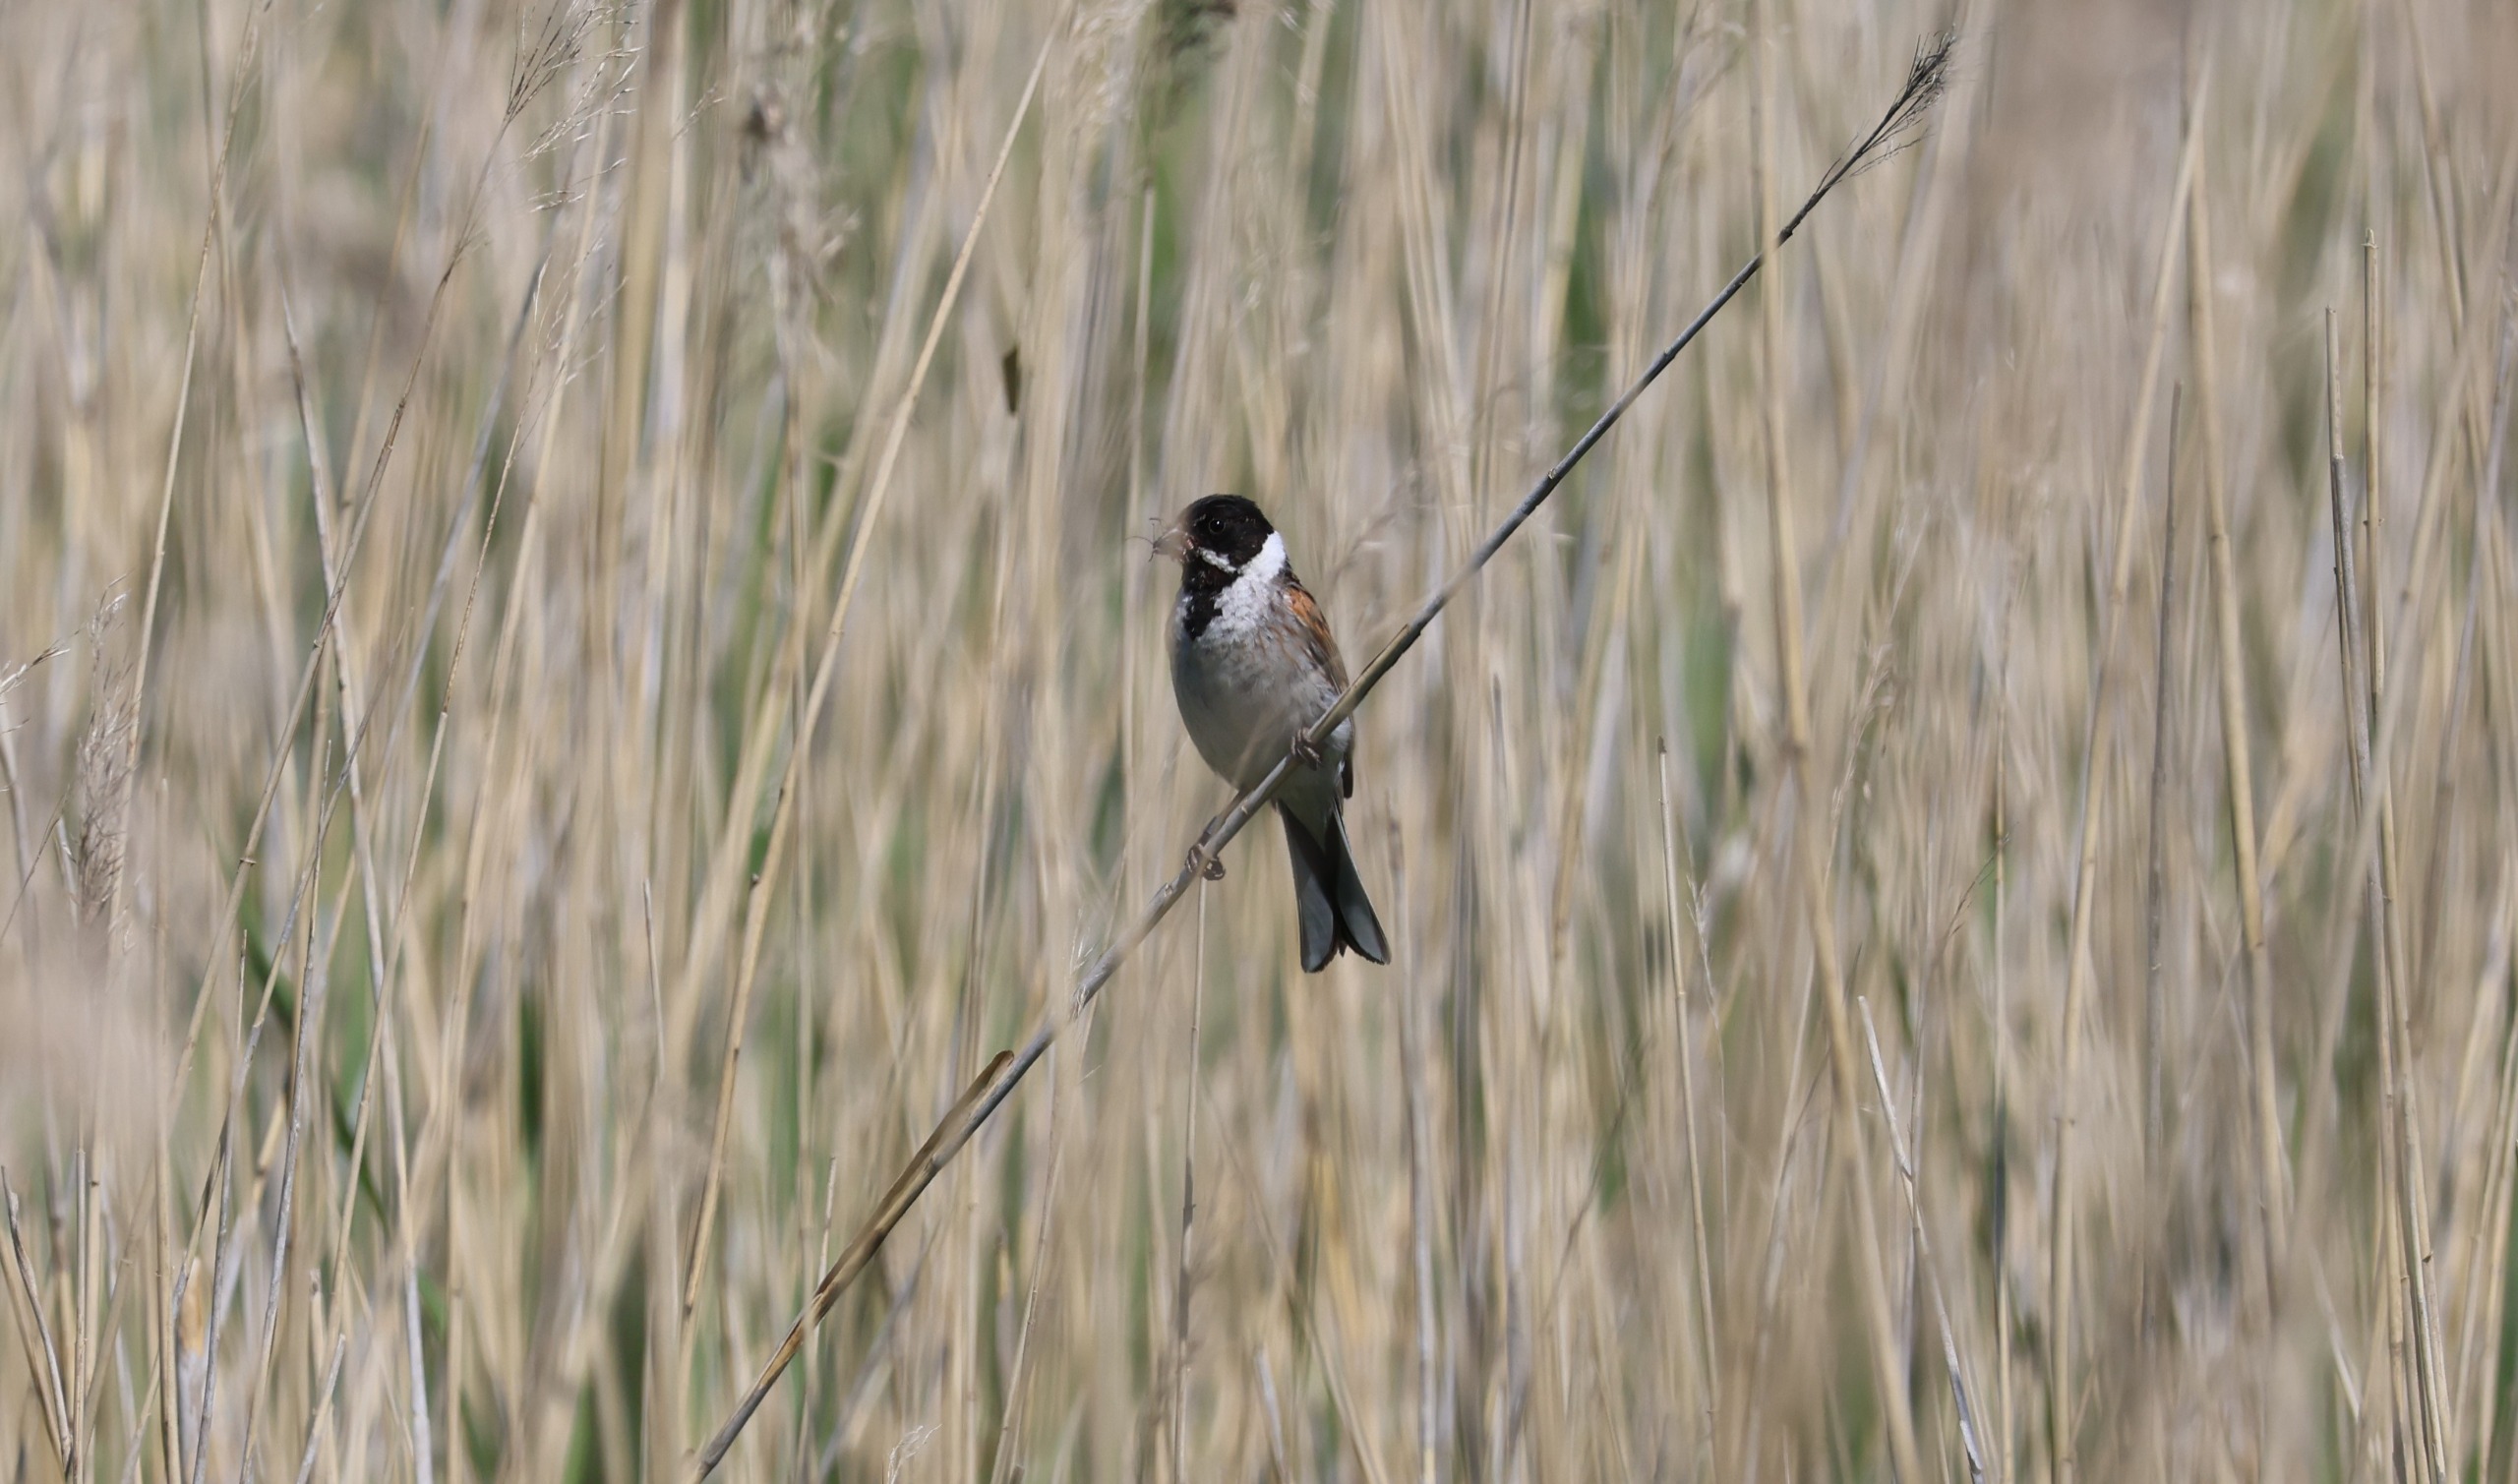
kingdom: Animalia
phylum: Chordata
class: Aves
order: Passeriformes
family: Emberizidae
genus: Emberiza
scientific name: Emberiza schoeniclus
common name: Rørspurv
